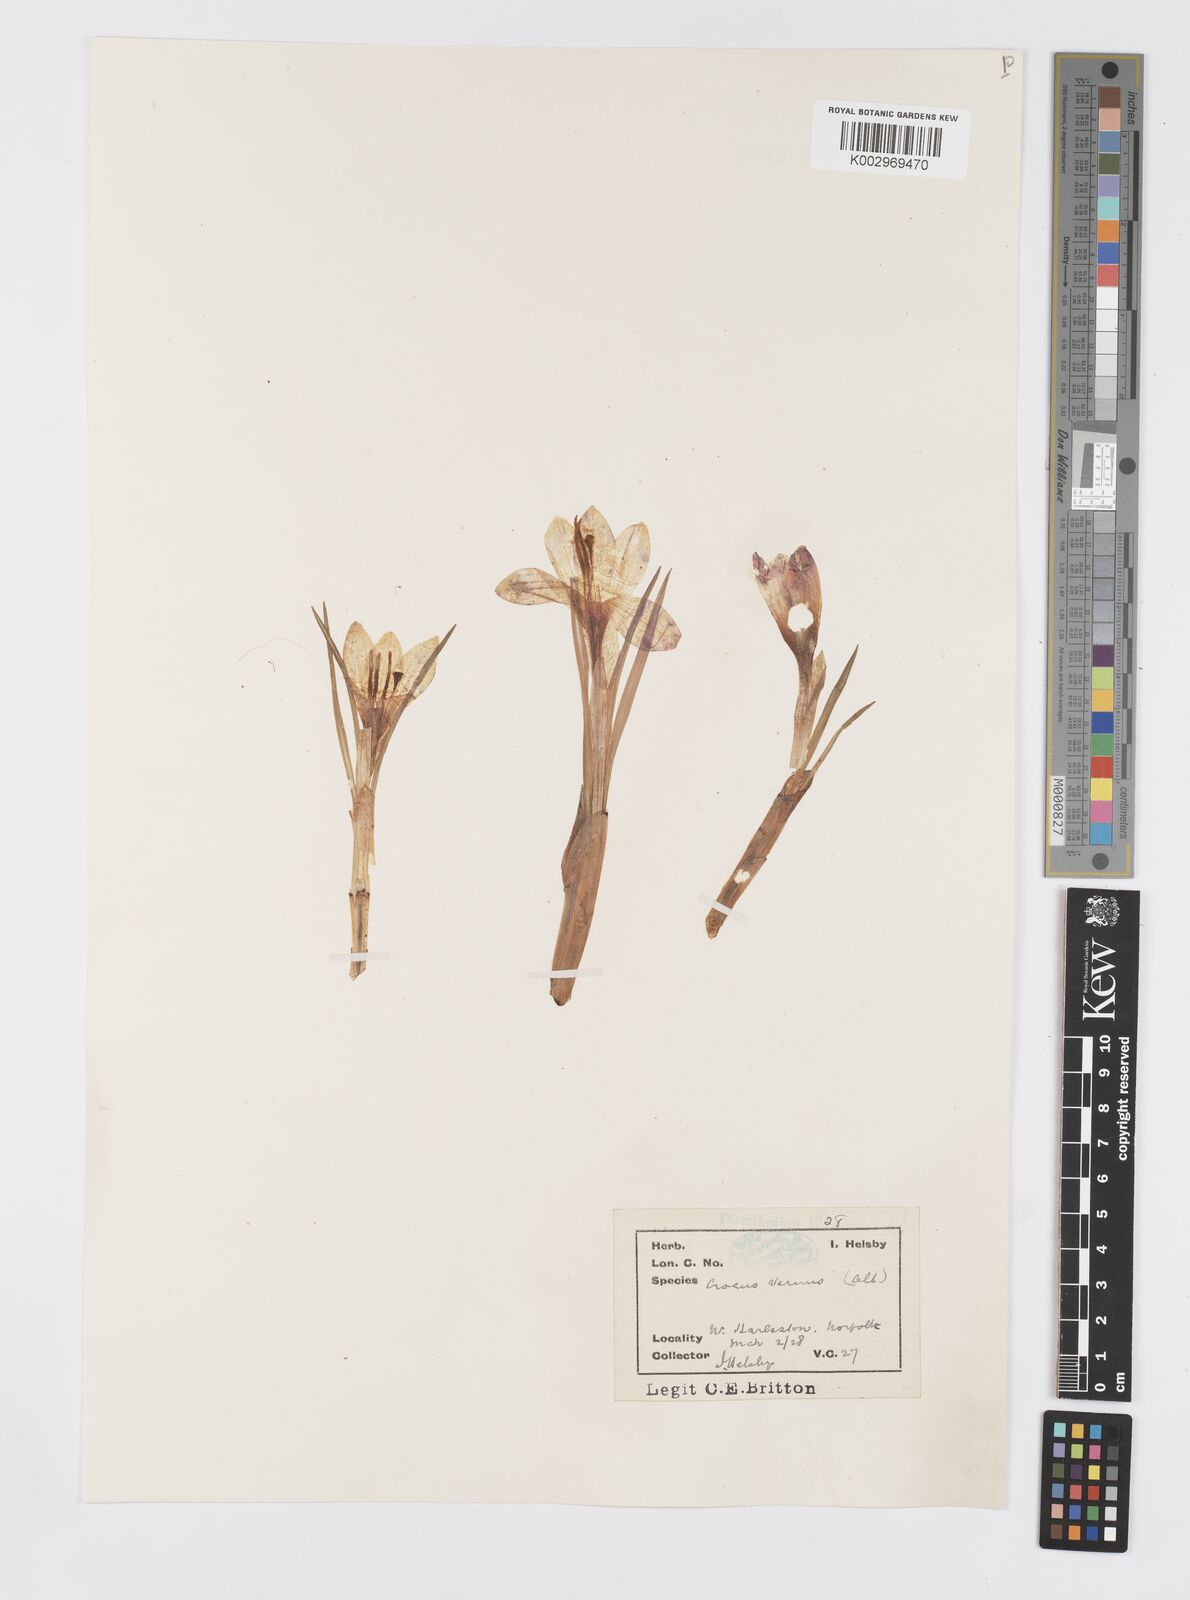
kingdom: Plantae
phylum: Tracheophyta
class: Liliopsida
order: Asparagales
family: Iridaceae
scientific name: Iridaceae
